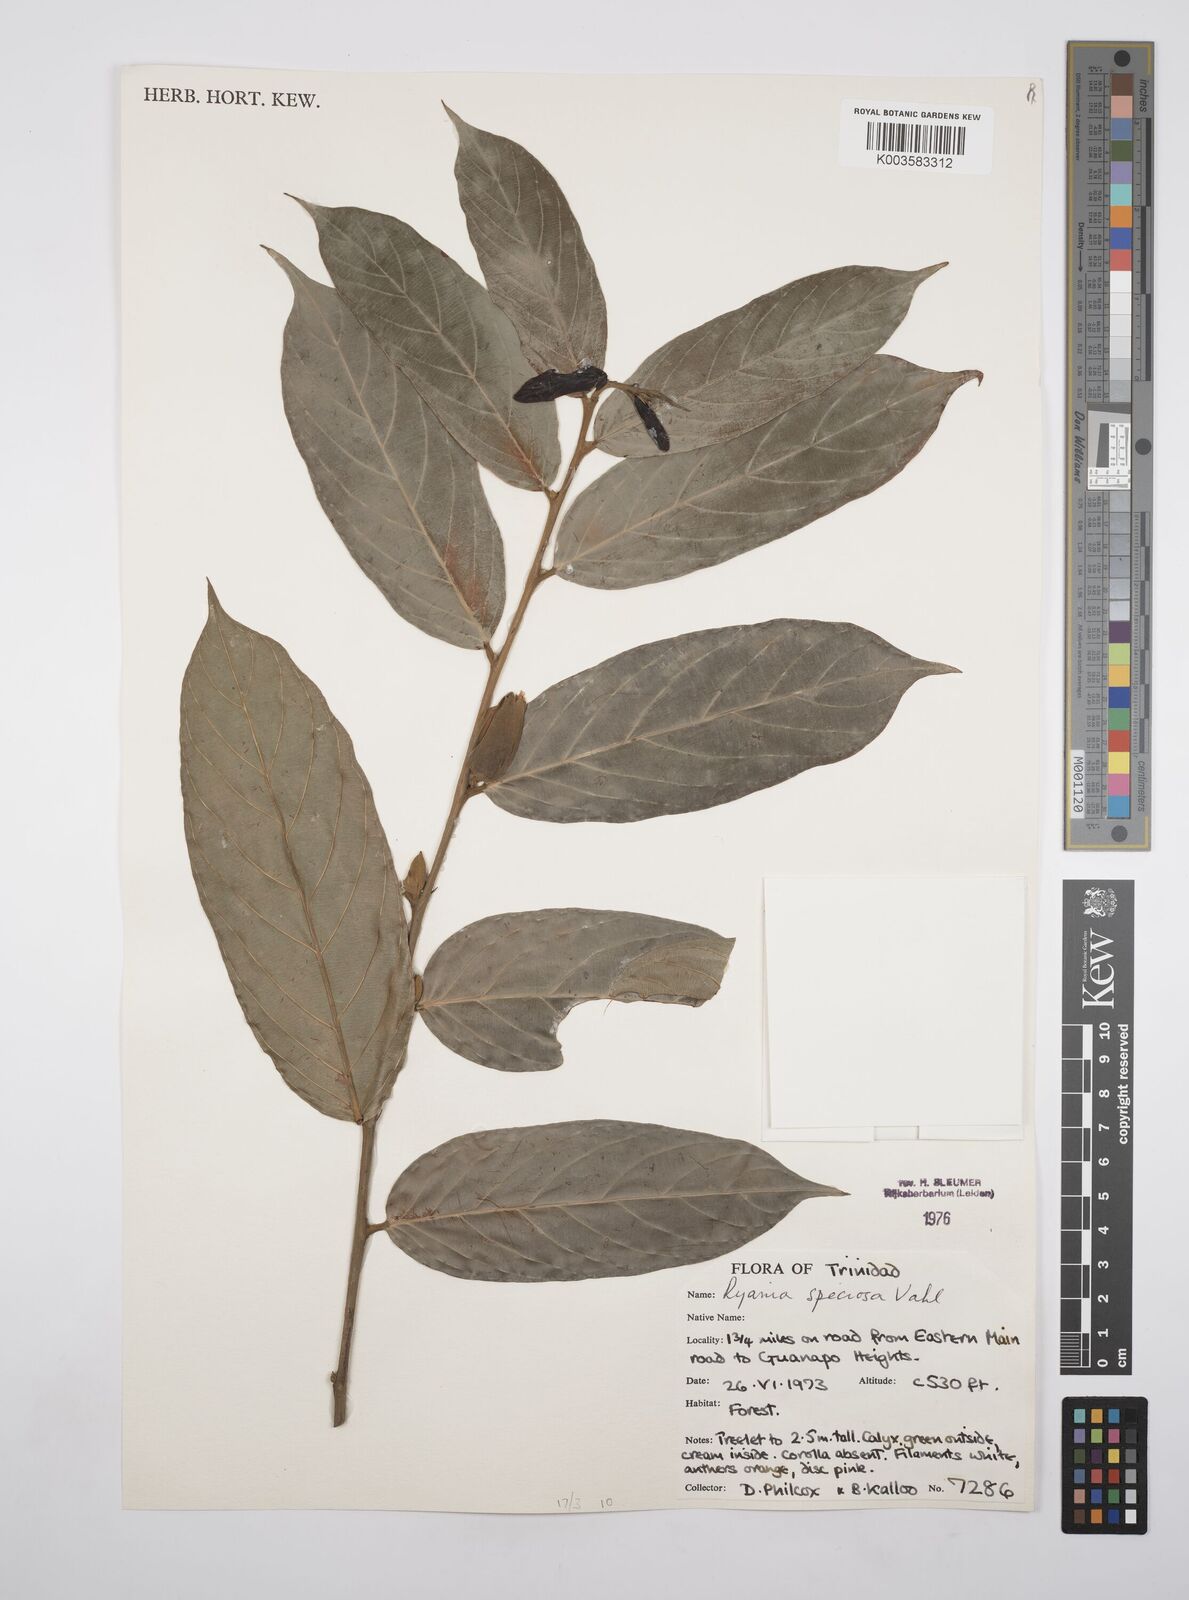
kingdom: Plantae
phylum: Tracheophyta
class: Magnoliopsida
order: Malpighiales
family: Salicaceae
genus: Ryania
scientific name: Ryania speciosa
